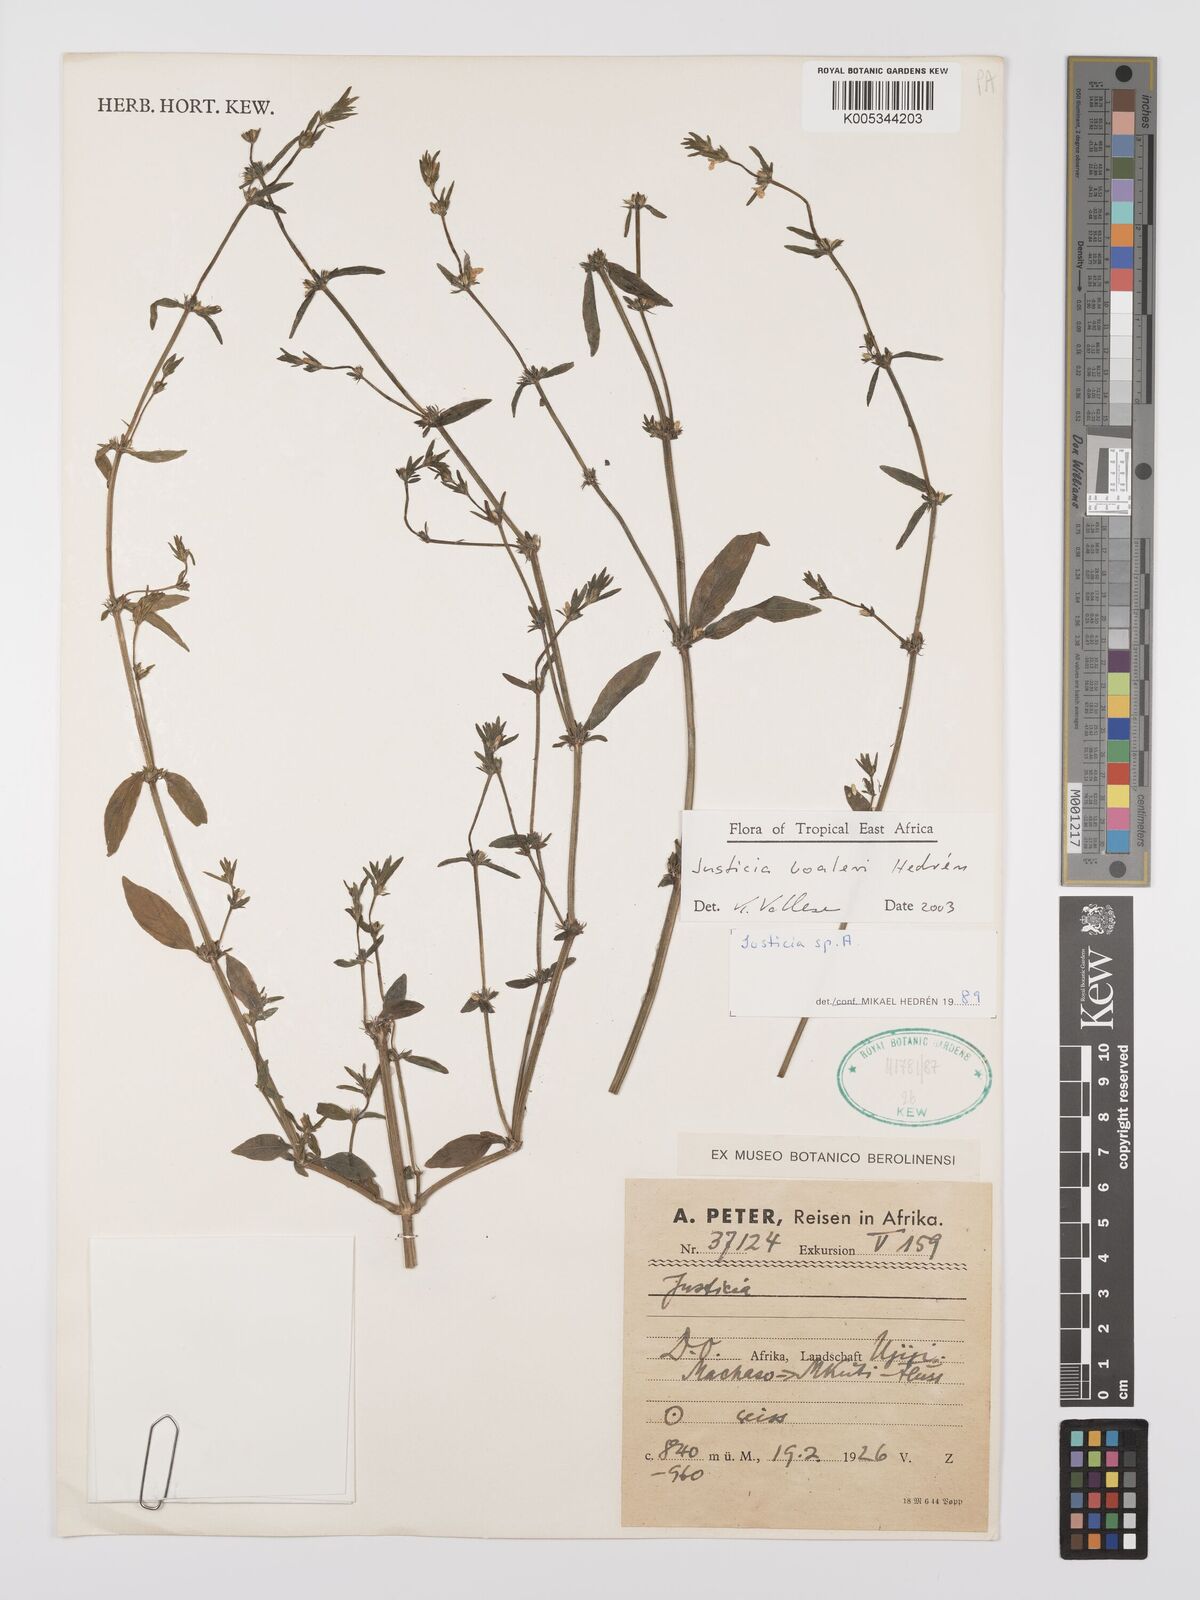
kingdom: Plantae
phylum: Tracheophyta
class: Magnoliopsida
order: Lamiales
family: Acanthaceae
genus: Justicia
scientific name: Justicia boaleri
